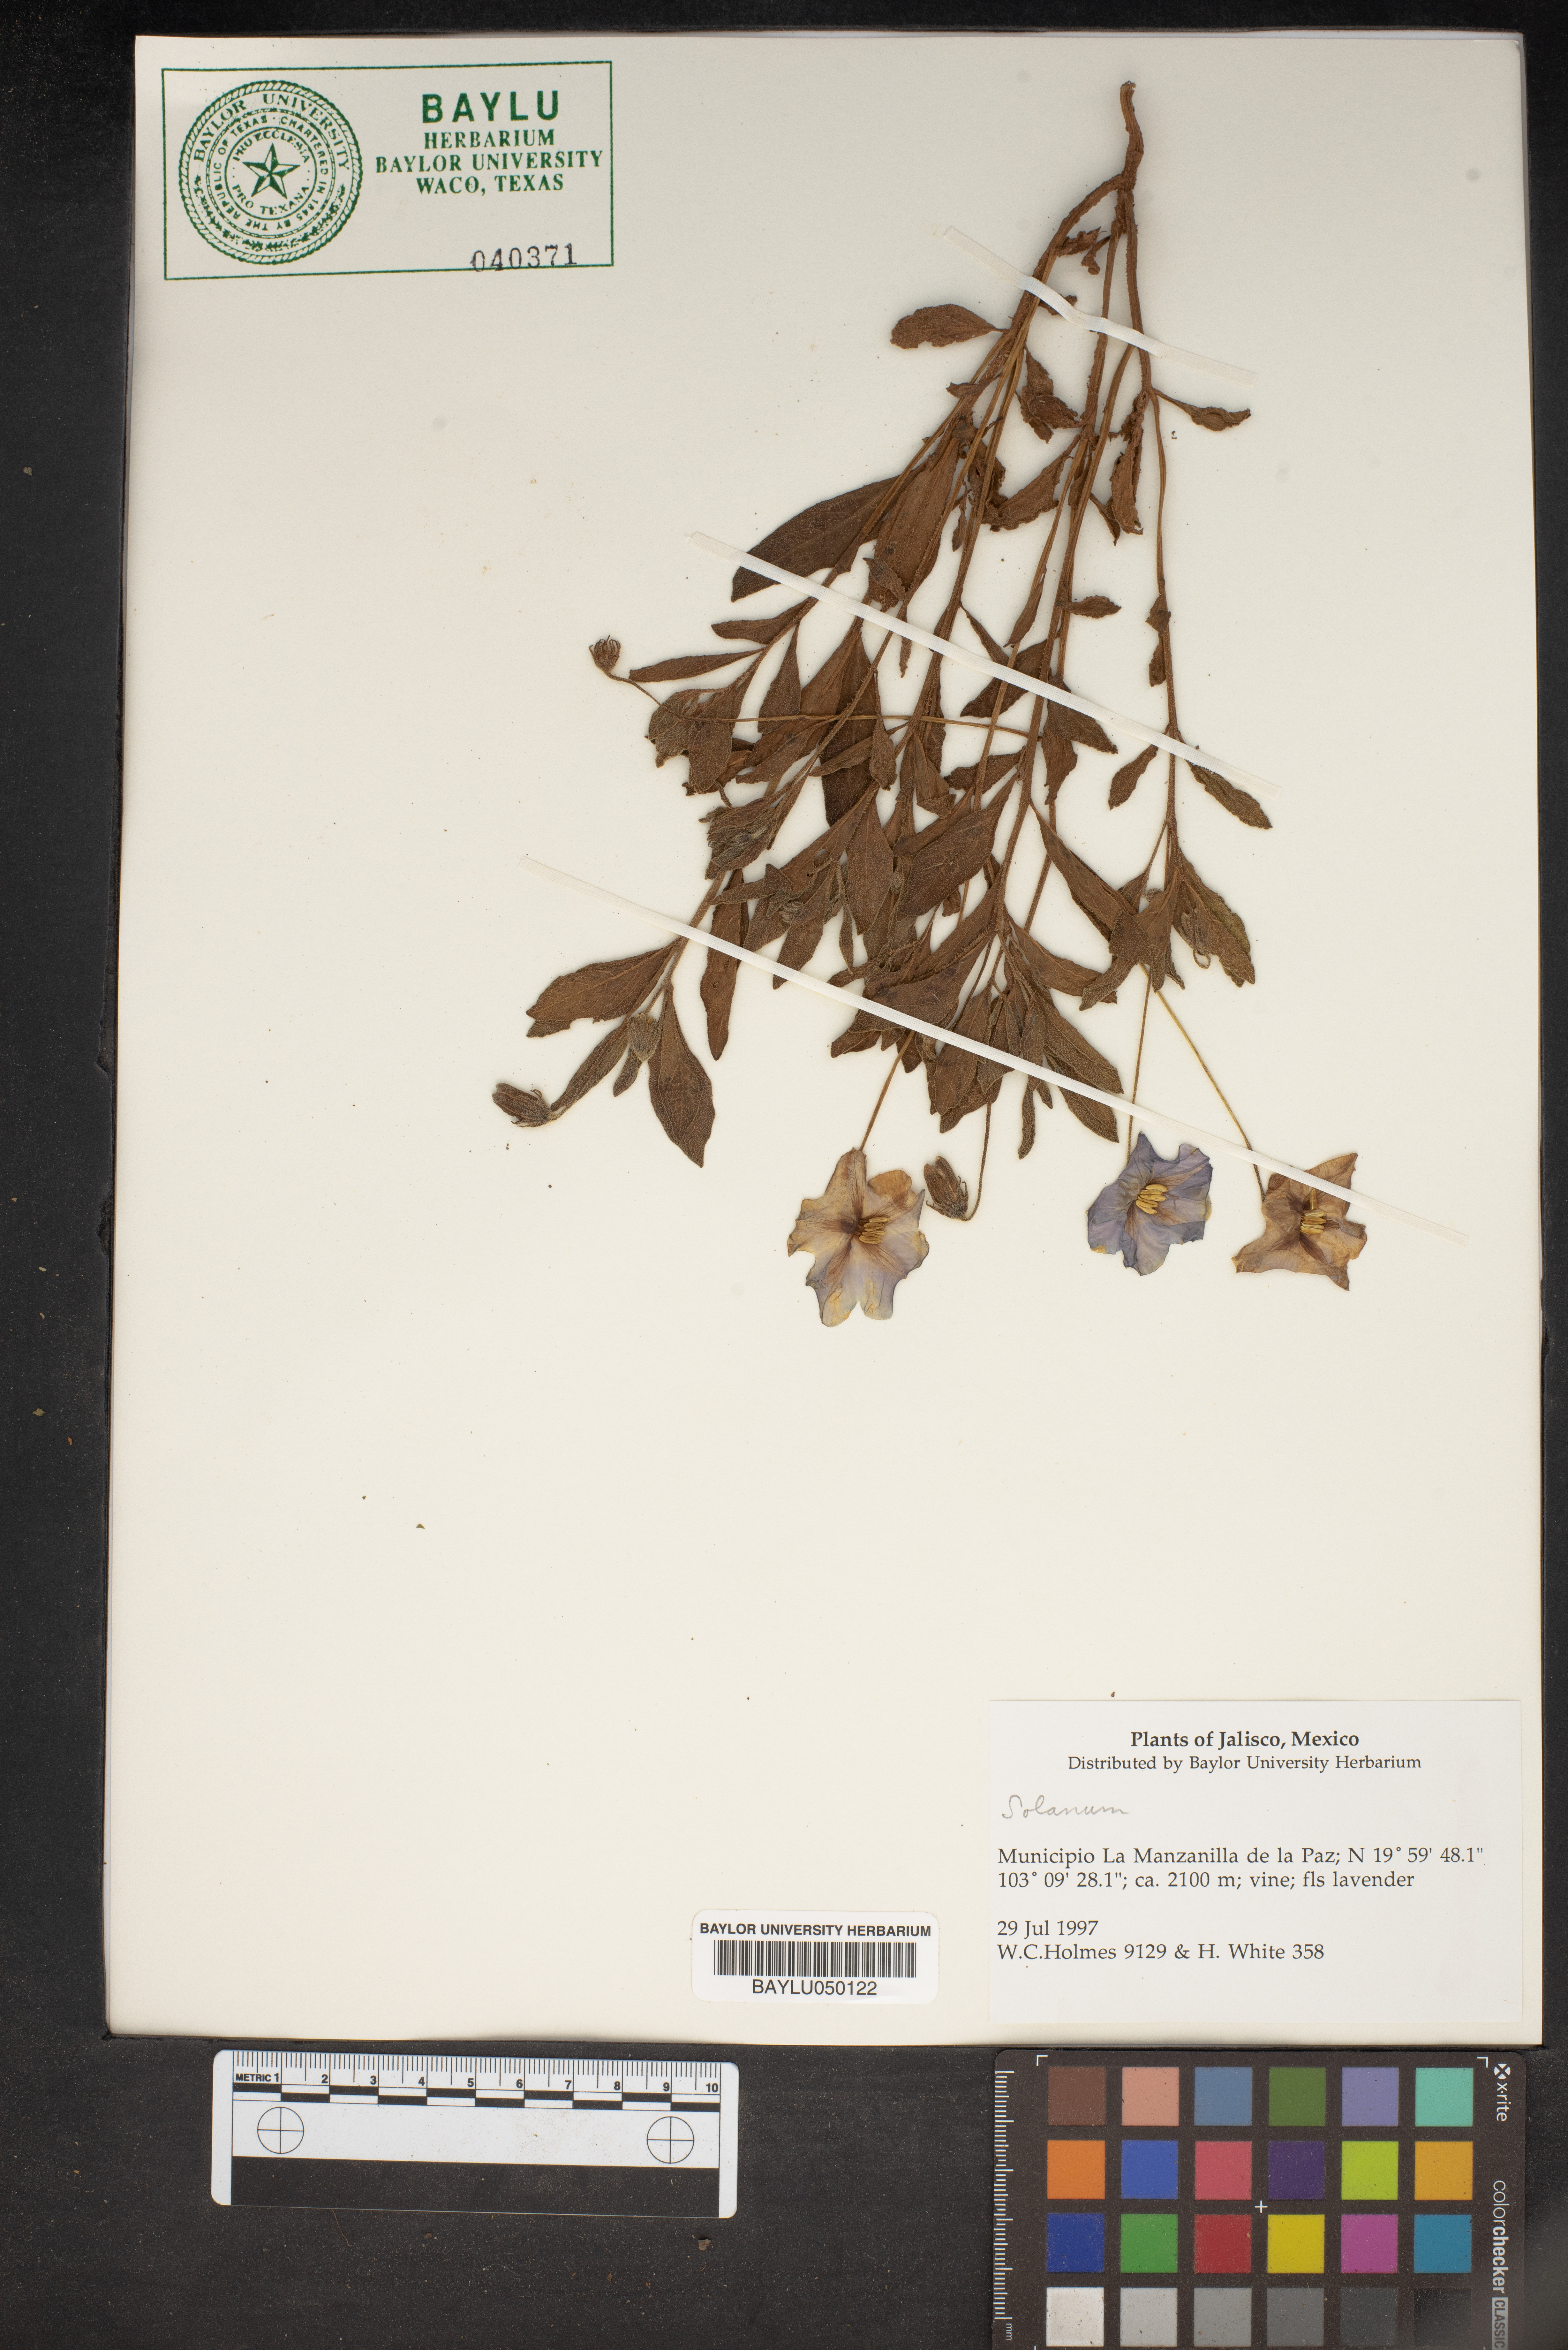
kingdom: Plantae
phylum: Tracheophyta
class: Magnoliopsida
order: Solanales
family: Solanaceae
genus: Solanum
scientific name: Solanum
